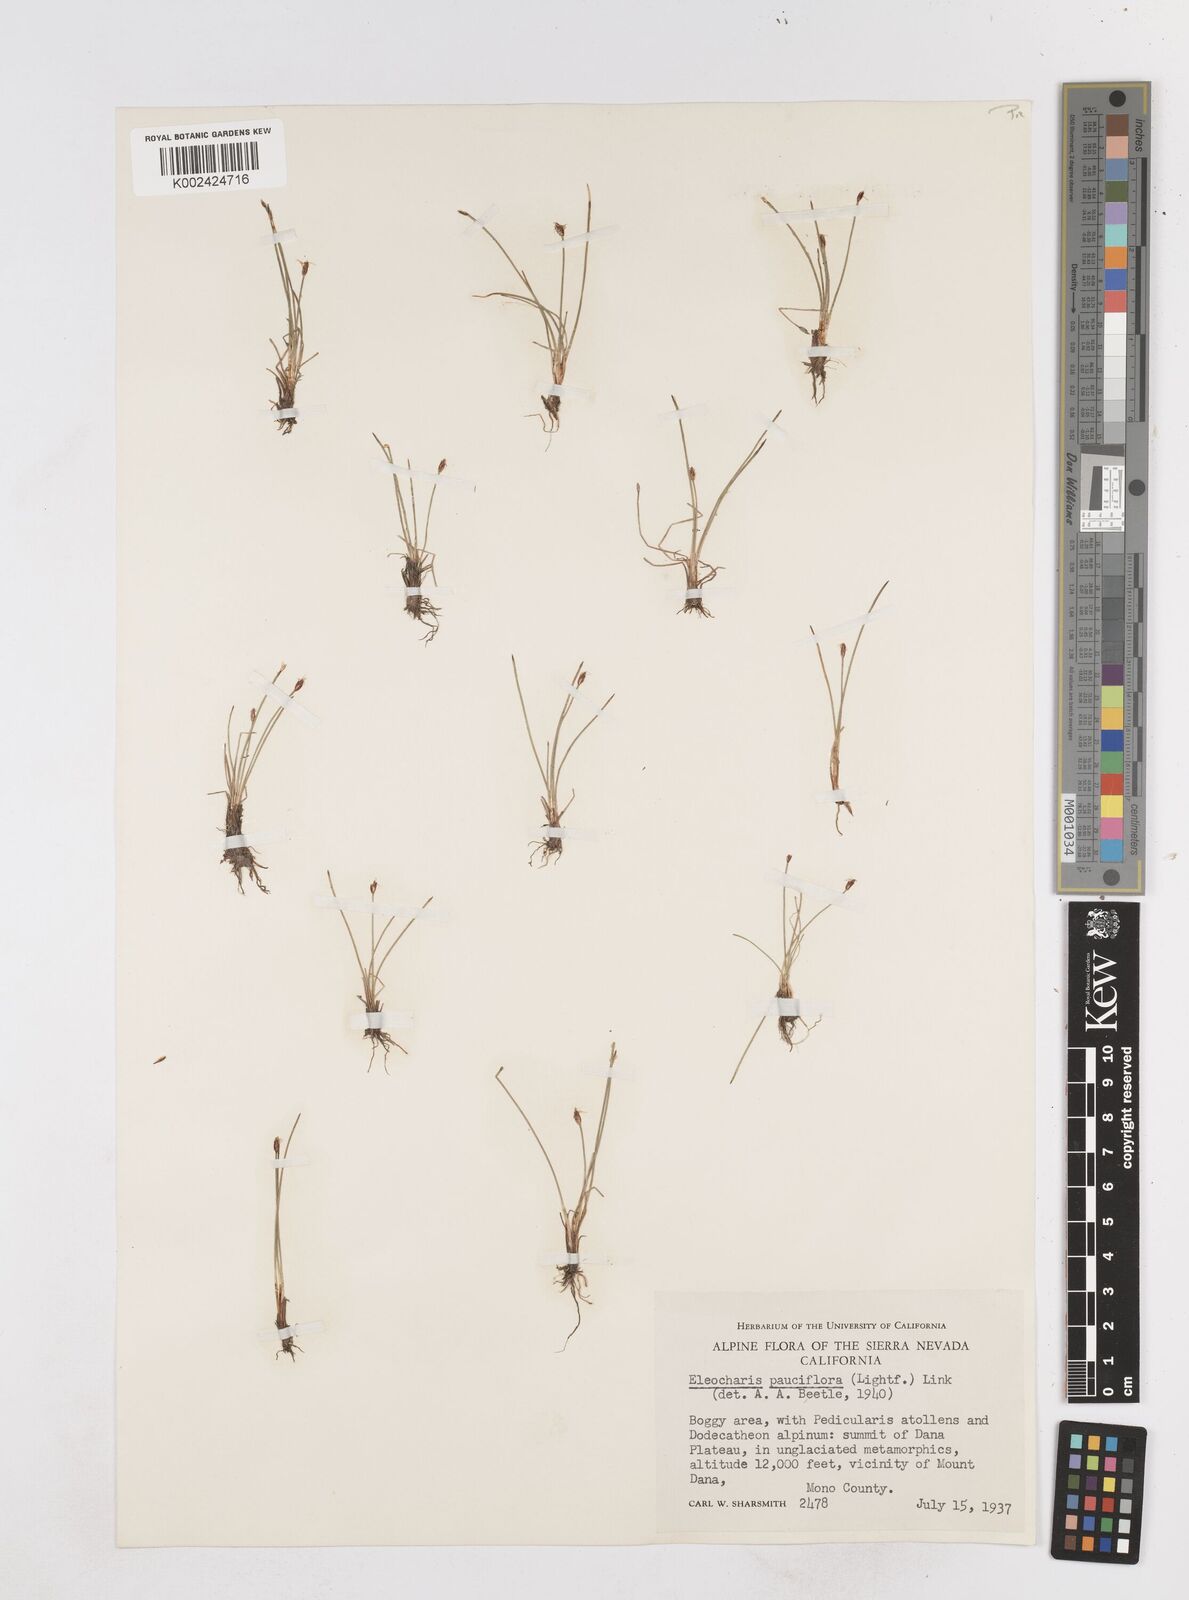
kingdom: Plantae
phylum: Tracheophyta
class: Liliopsida
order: Poales
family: Cyperaceae
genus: Eleocharis
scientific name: Eleocharis quinqueflora
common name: Few-flowered spike-rush
